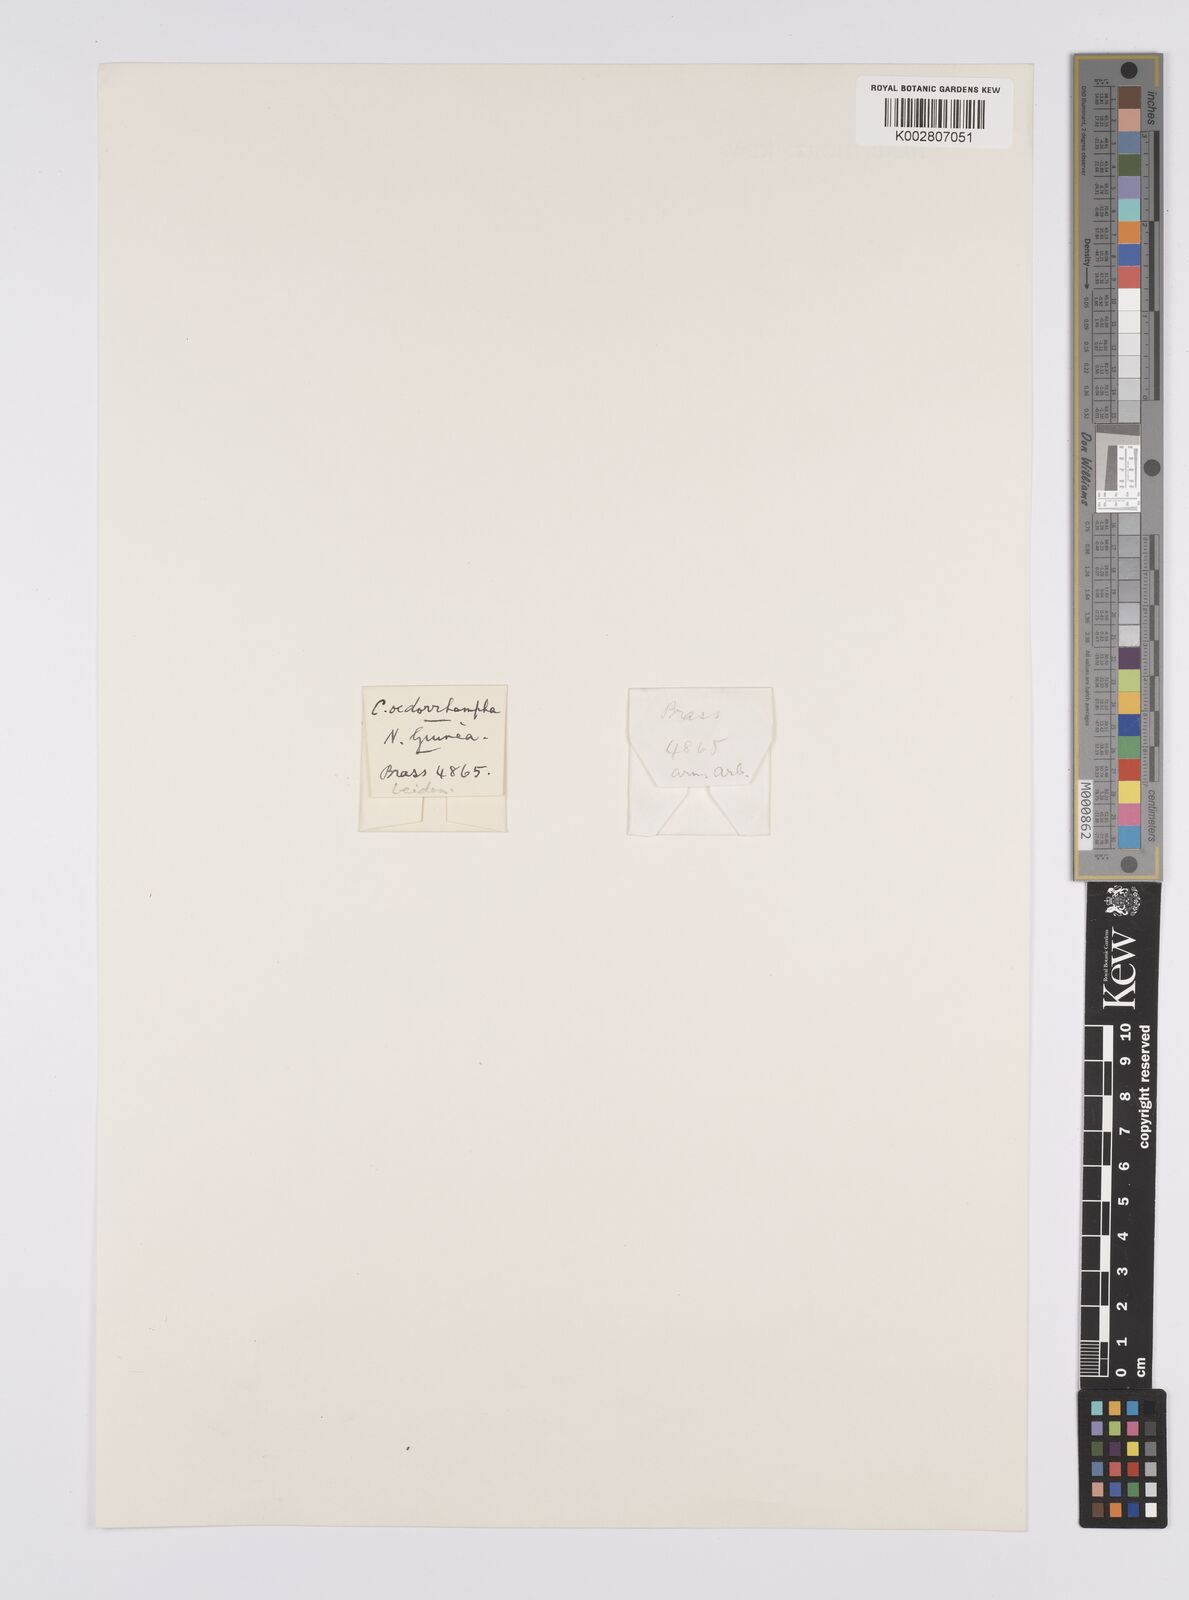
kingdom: Plantae
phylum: Tracheophyta
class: Liliopsida
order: Poales
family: Cyperaceae
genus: Carex
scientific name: Carex tumida
